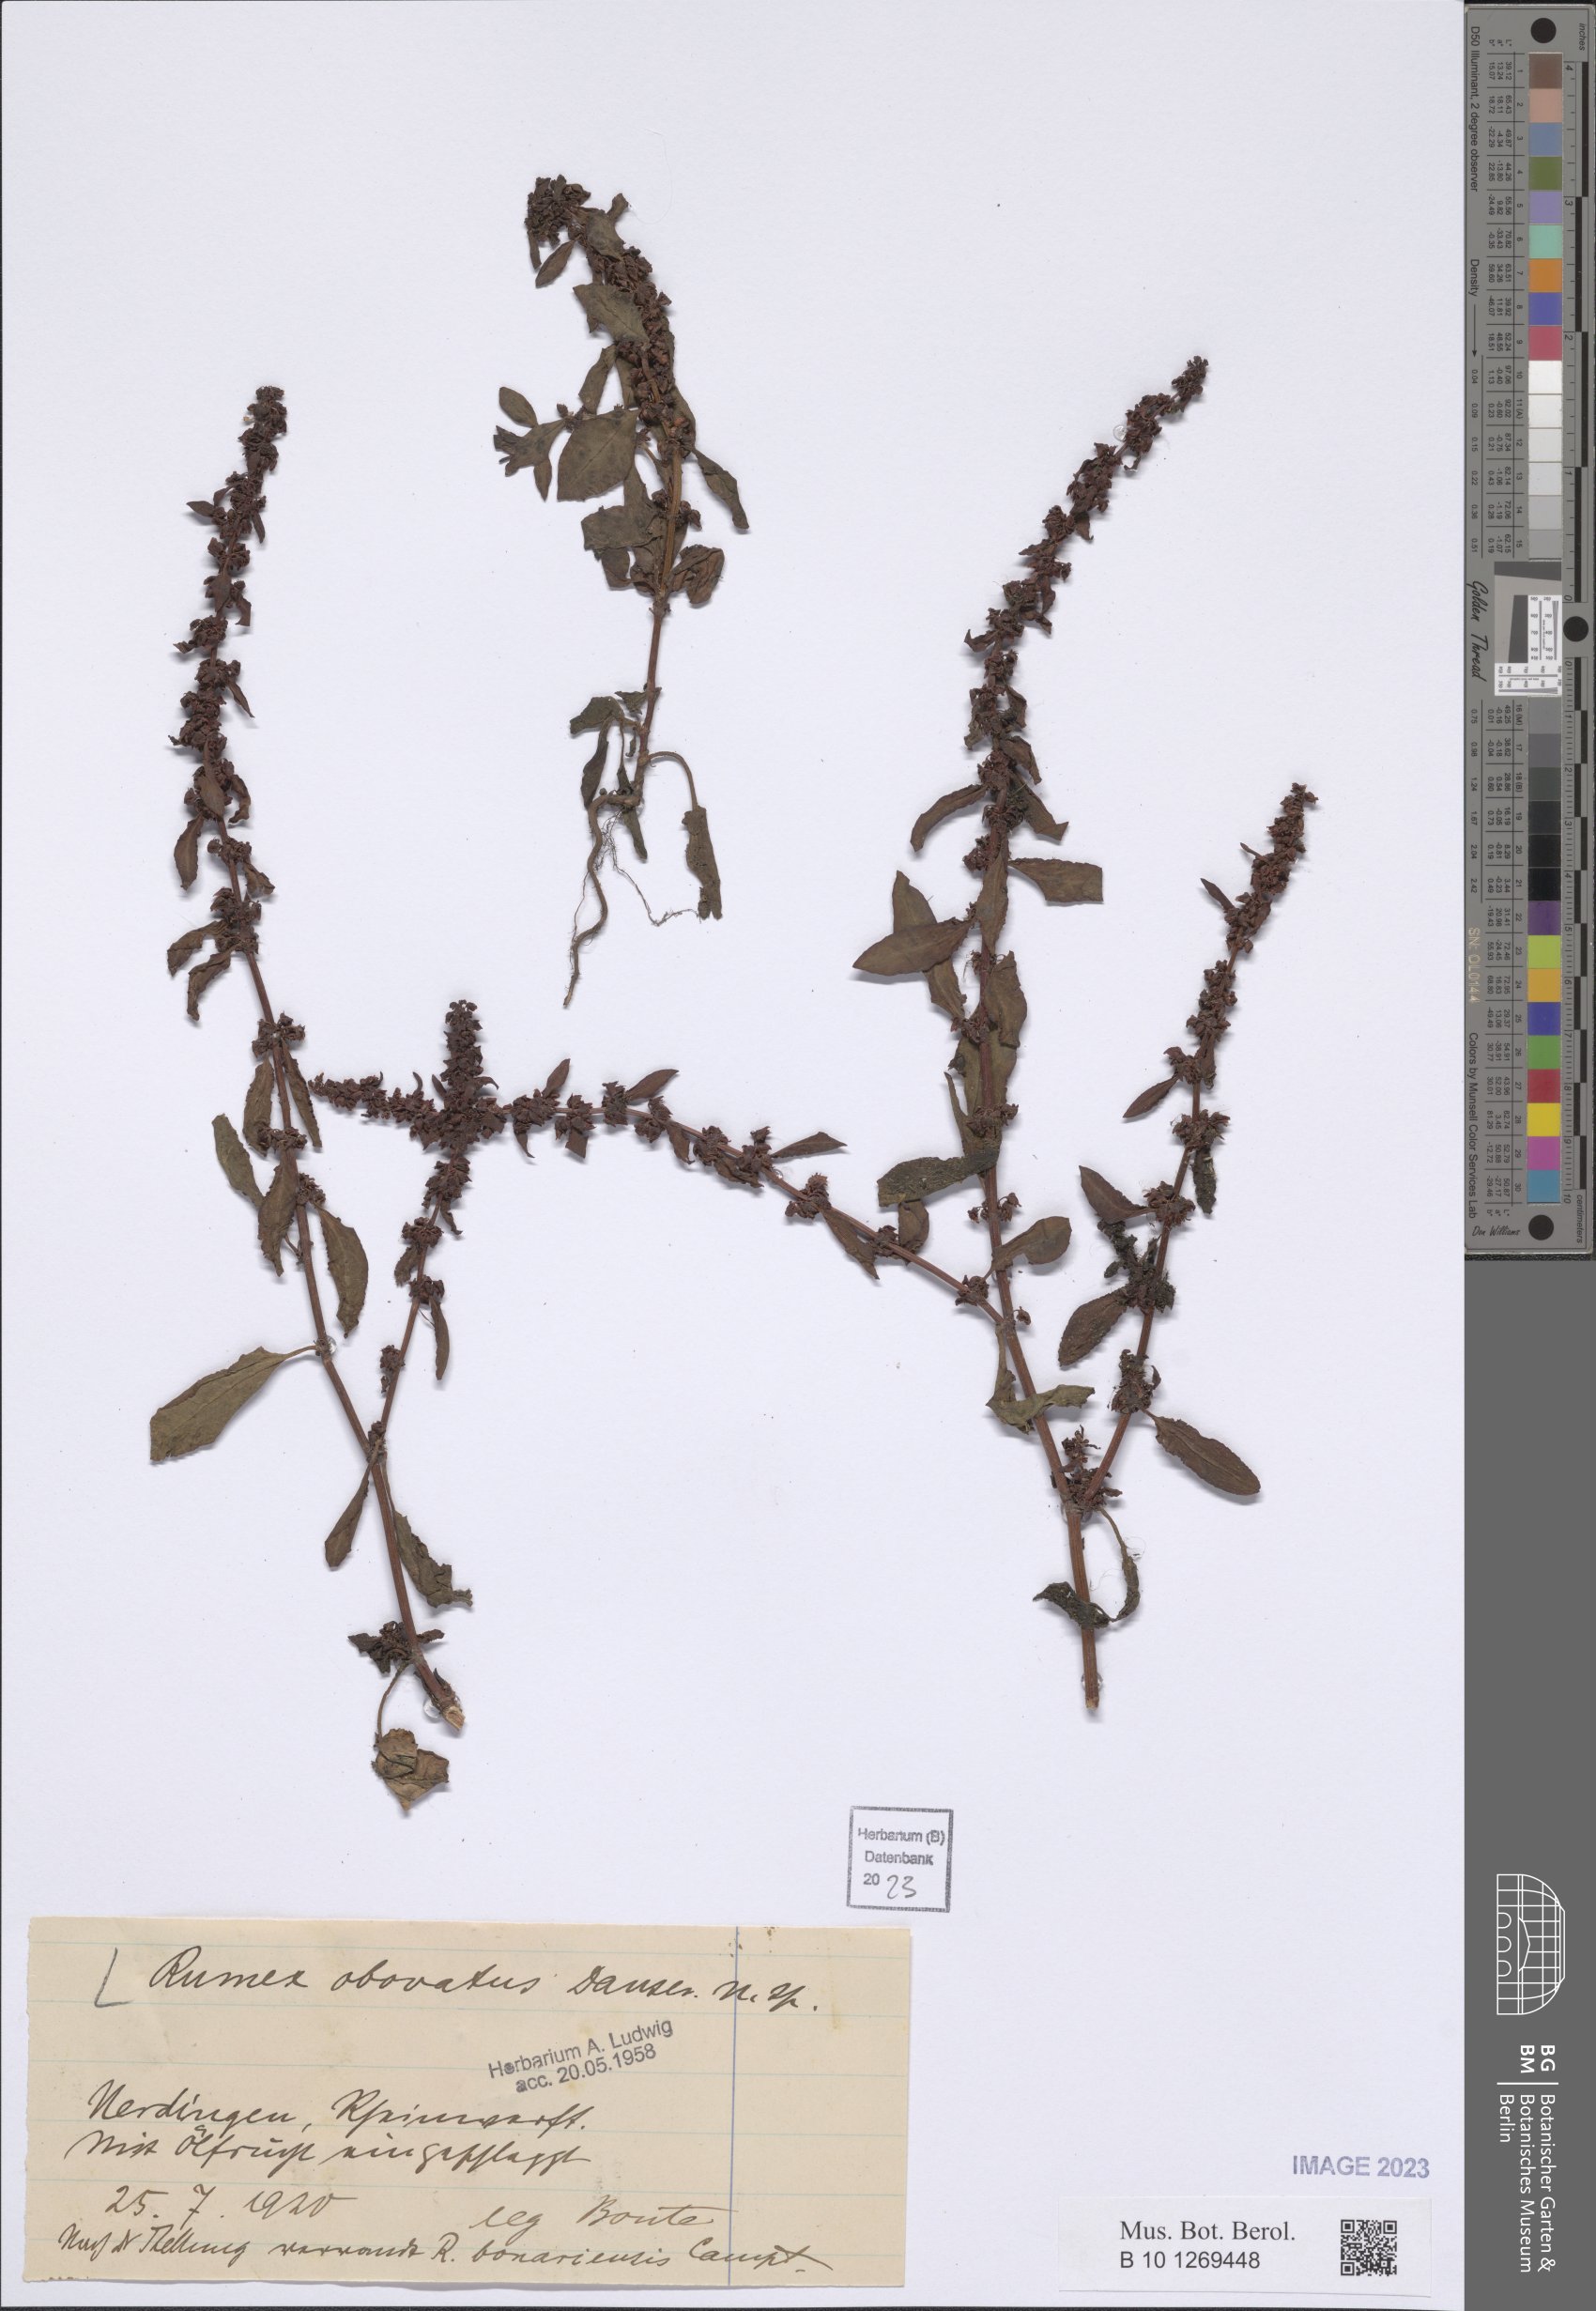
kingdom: Plantae
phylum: Tracheophyta
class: Magnoliopsida
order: Caryophyllales
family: Polygonaceae
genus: Rumex
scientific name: Rumex obovatus
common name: Obovate-leaved dock
